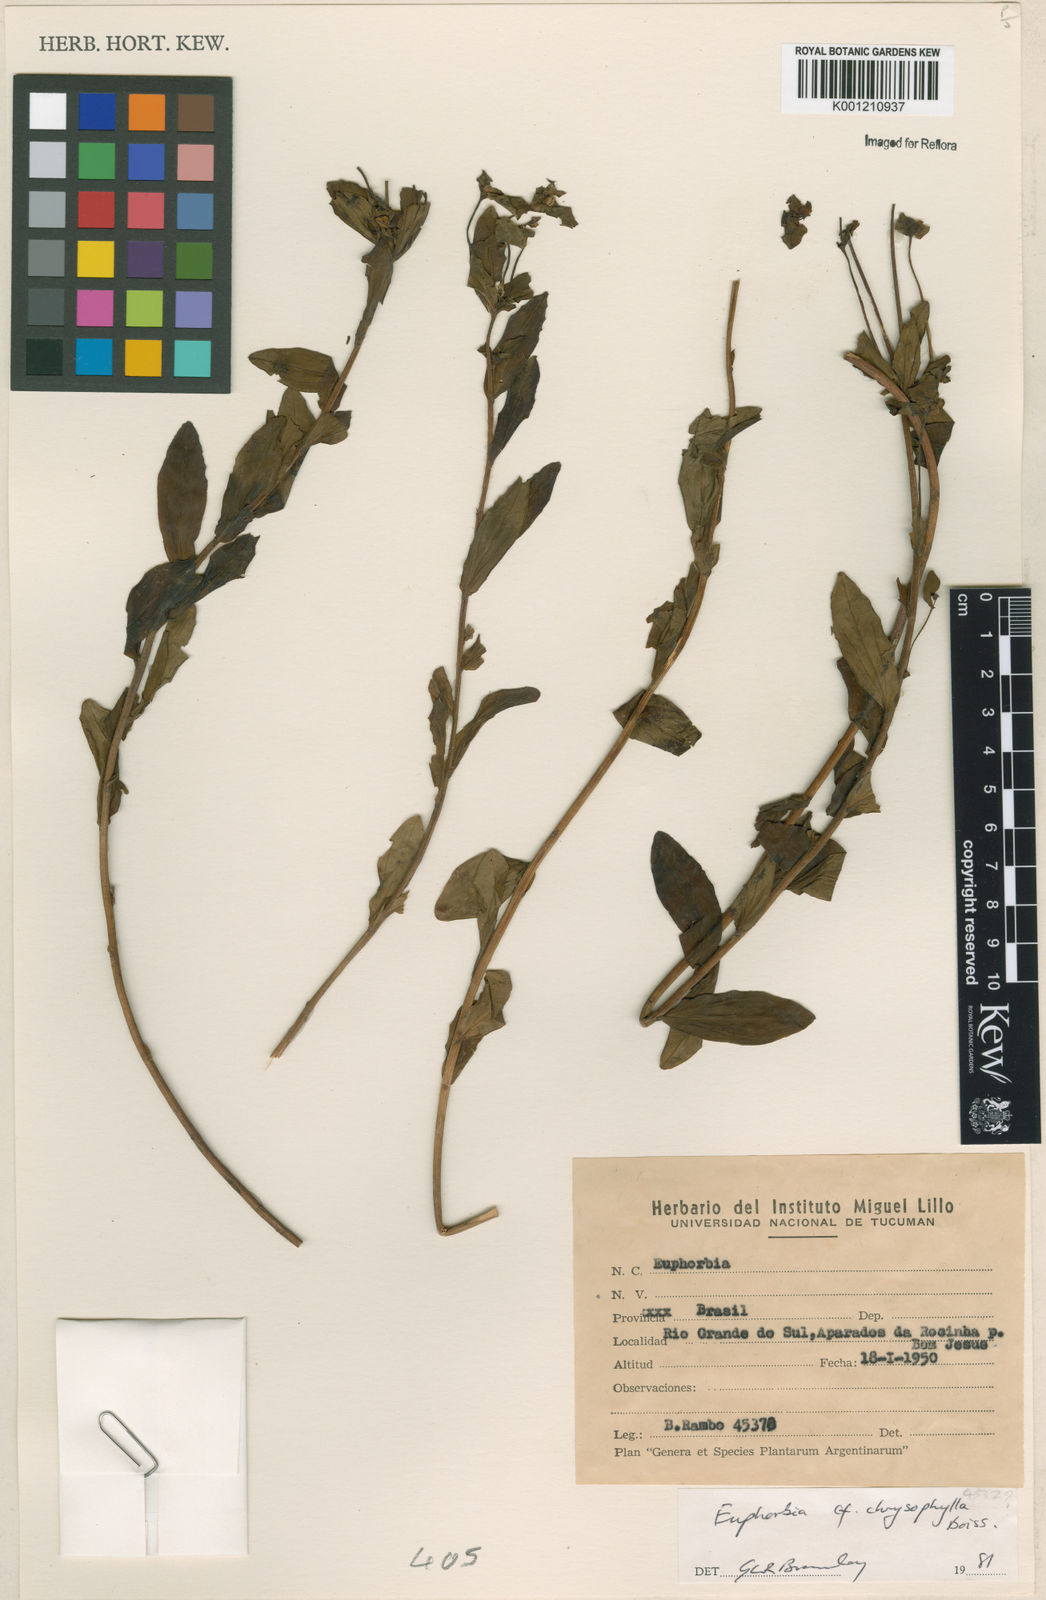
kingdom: Plantae
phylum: Tracheophyta
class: Magnoliopsida
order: Malpighiales
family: Euphorbiaceae
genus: Euphorbia
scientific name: Euphorbia chrysophylla
